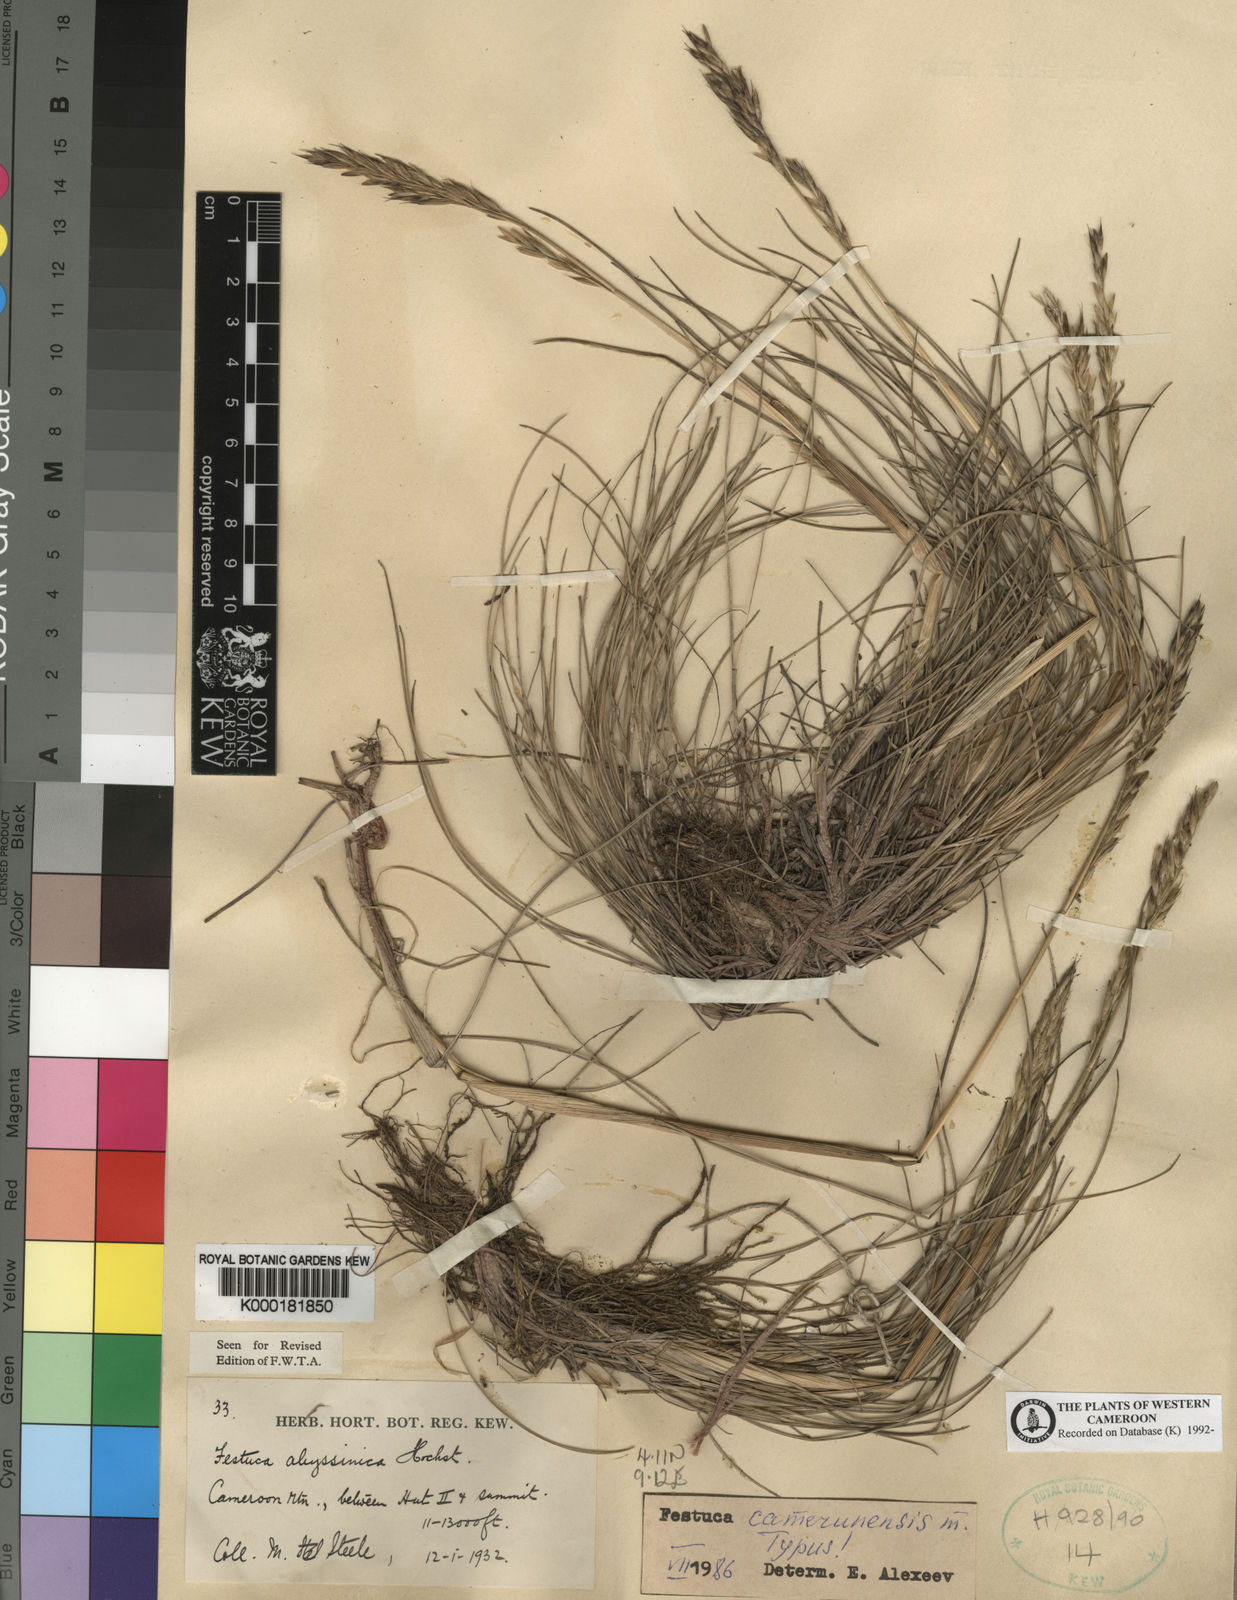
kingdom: Plantae
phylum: Tracheophyta
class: Liliopsida
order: Poales
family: Poaceae
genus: Festuca
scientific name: Festuca camusiana
